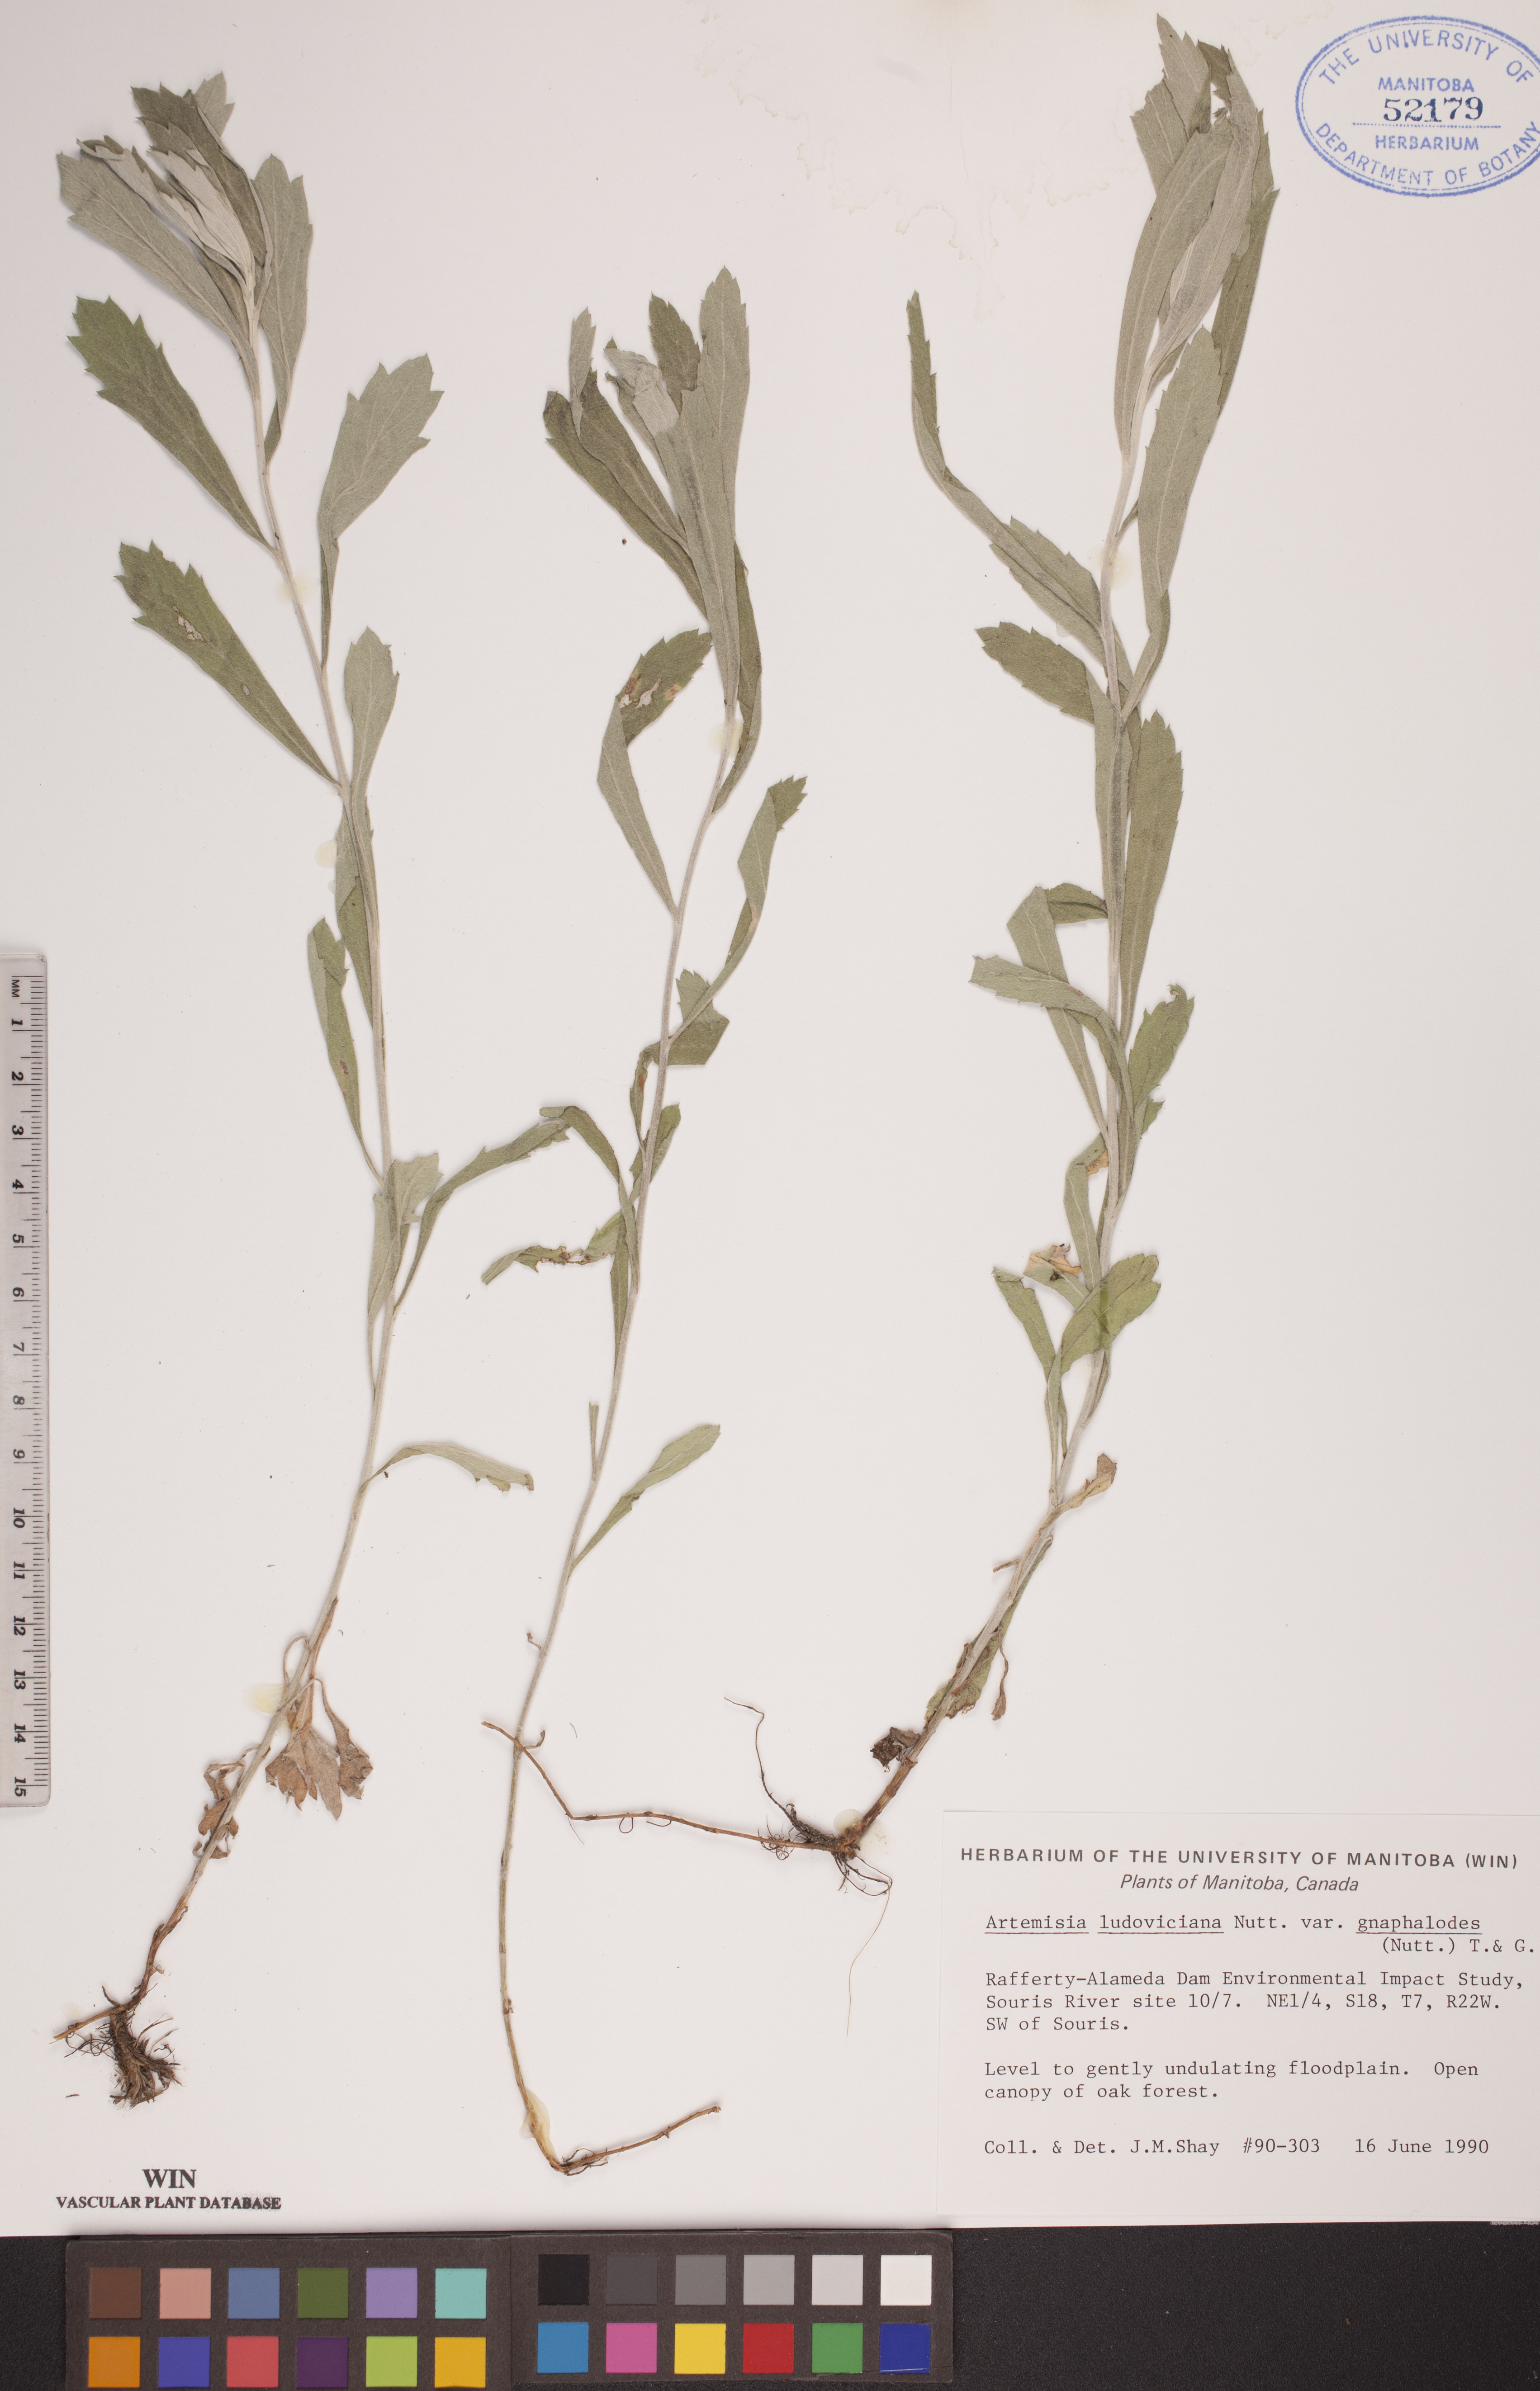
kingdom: Plantae
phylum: Tracheophyta
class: Magnoliopsida
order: Asterales
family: Asteraceae
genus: Artemisia
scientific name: Artemisia ludoviciana
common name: Western mugwort
